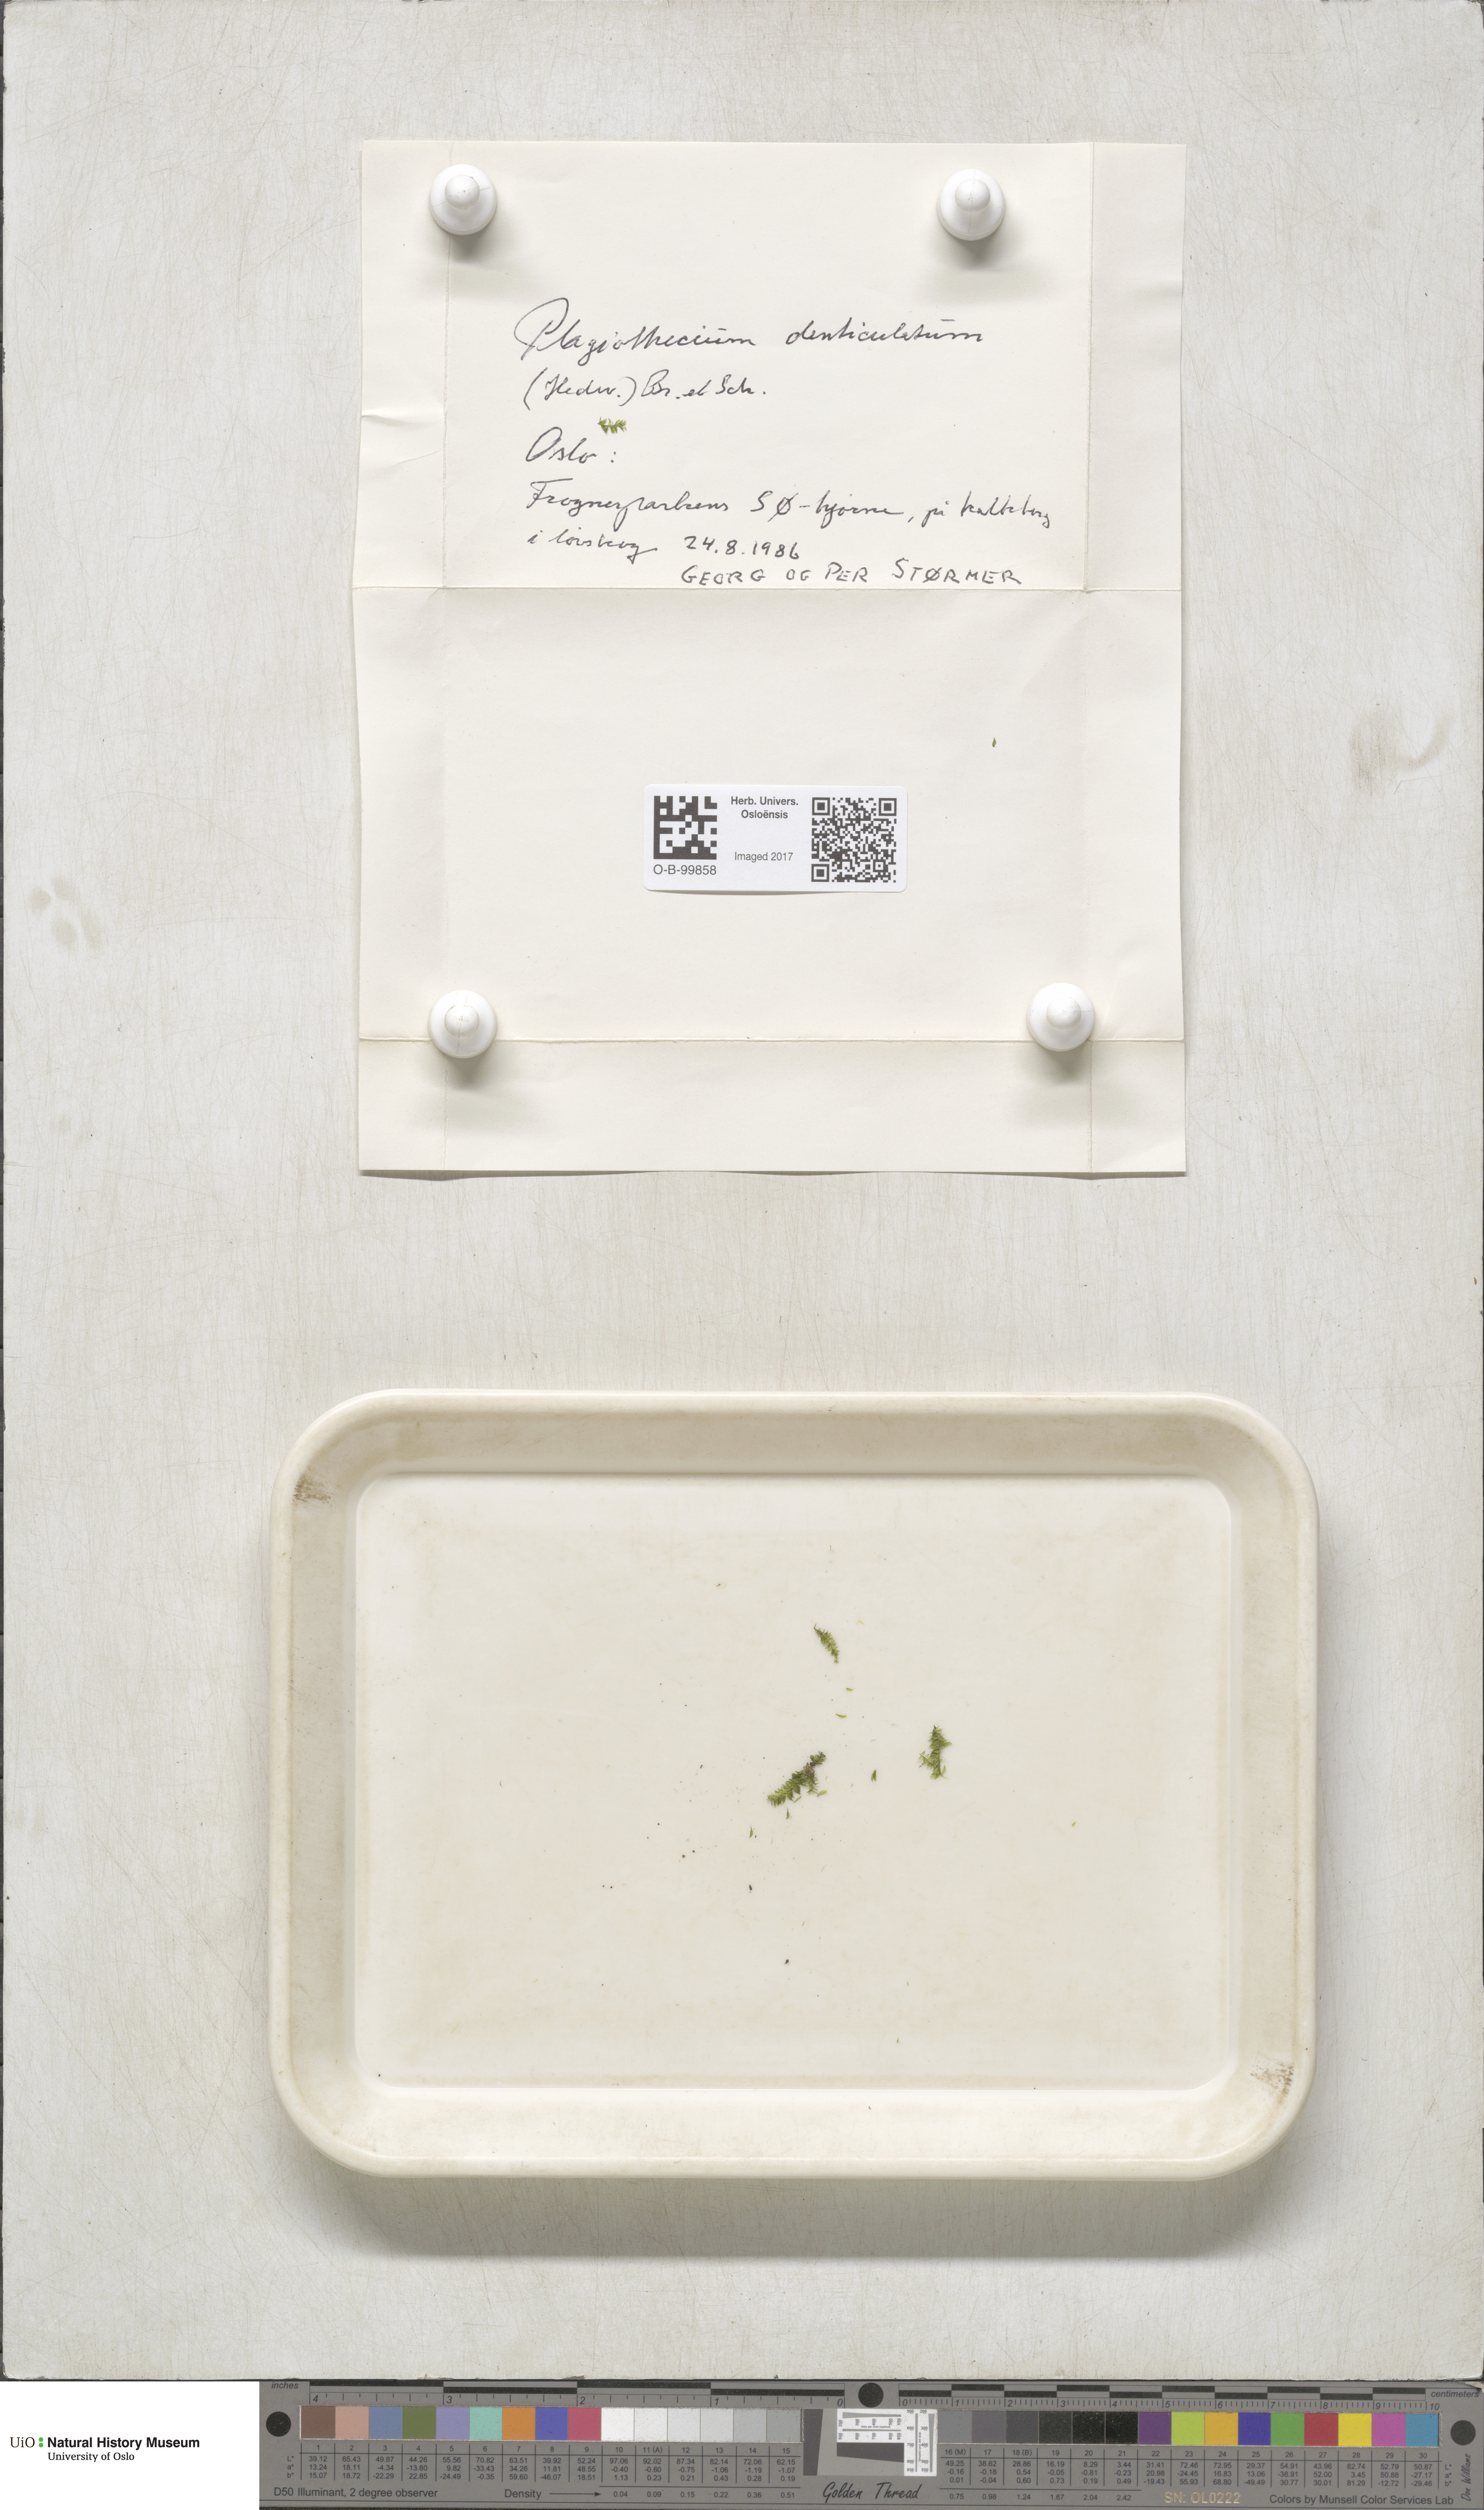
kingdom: Plantae
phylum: Bryophyta
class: Bryopsida
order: Hypnales
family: Plagiotheciaceae
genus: Plagiothecium
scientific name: Plagiothecium denticulatum
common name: Dented silk moss
